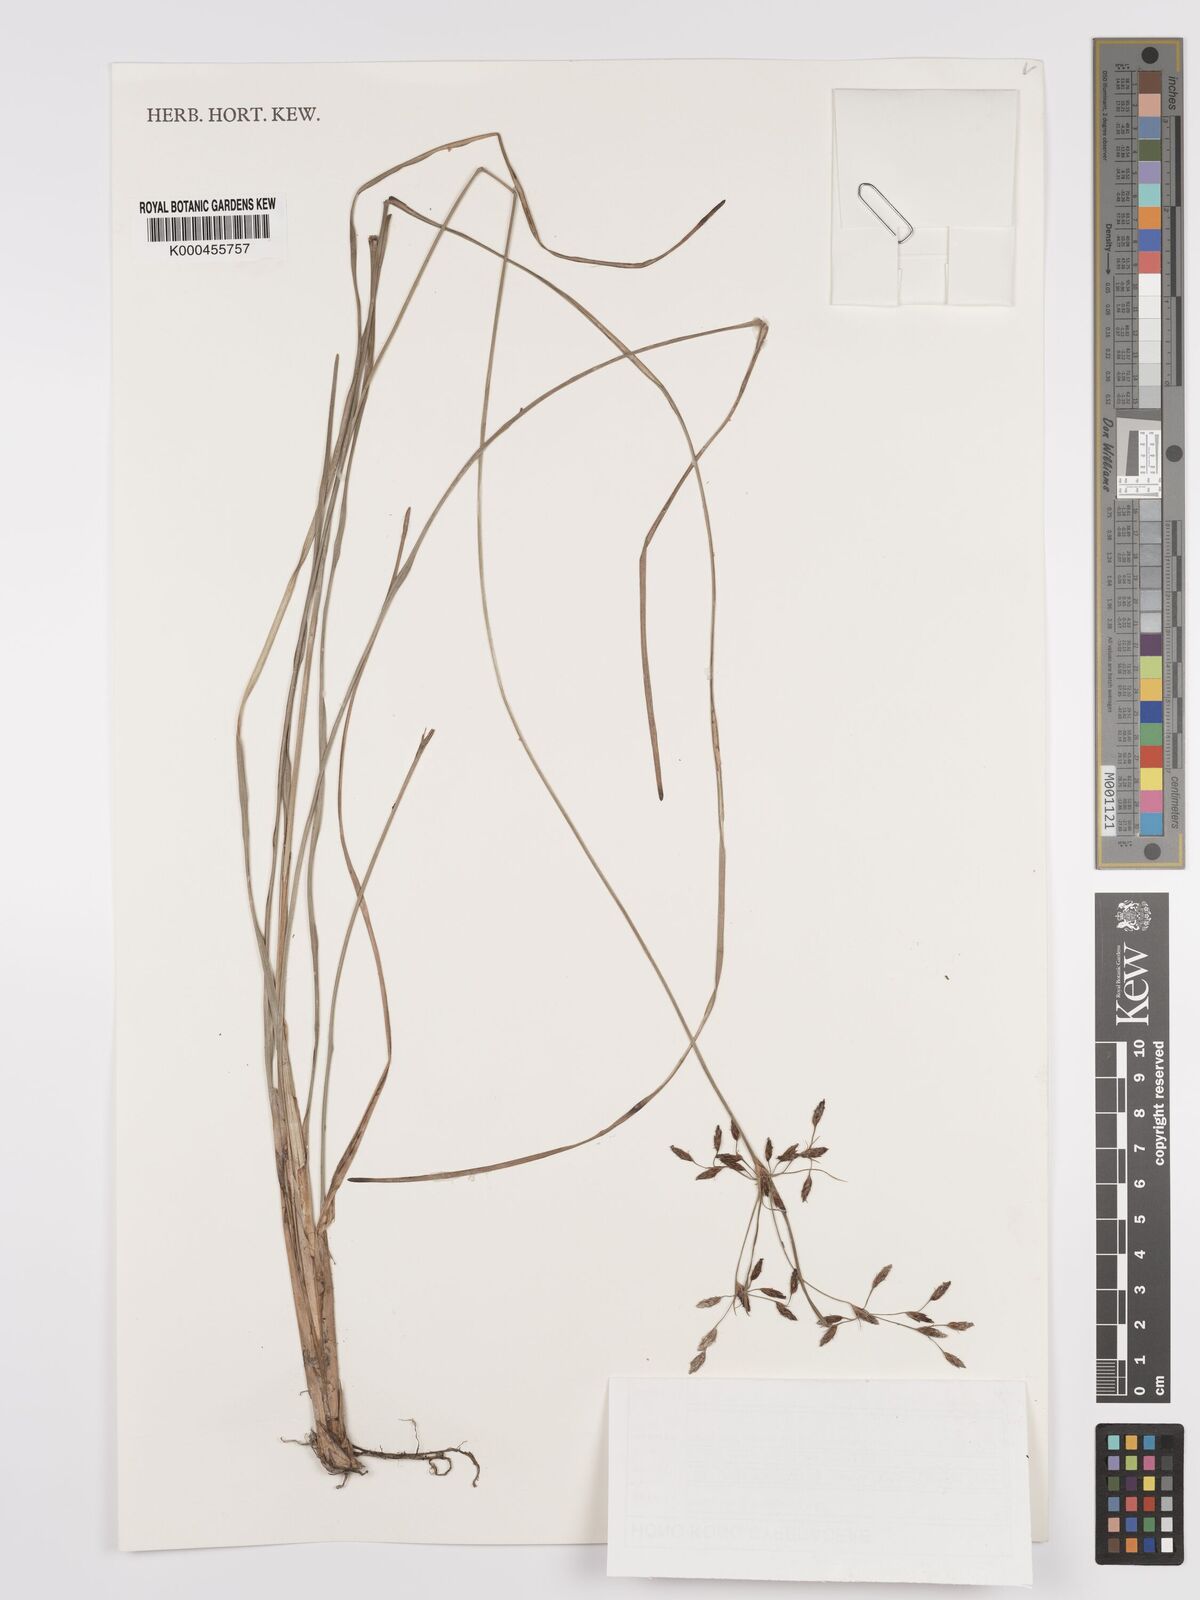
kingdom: Plantae
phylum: Tracheophyta
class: Liliopsida
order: Poales
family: Cyperaceae
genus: Fimbristylis
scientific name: Fimbristylis dichotoma
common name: Forked fimbry
